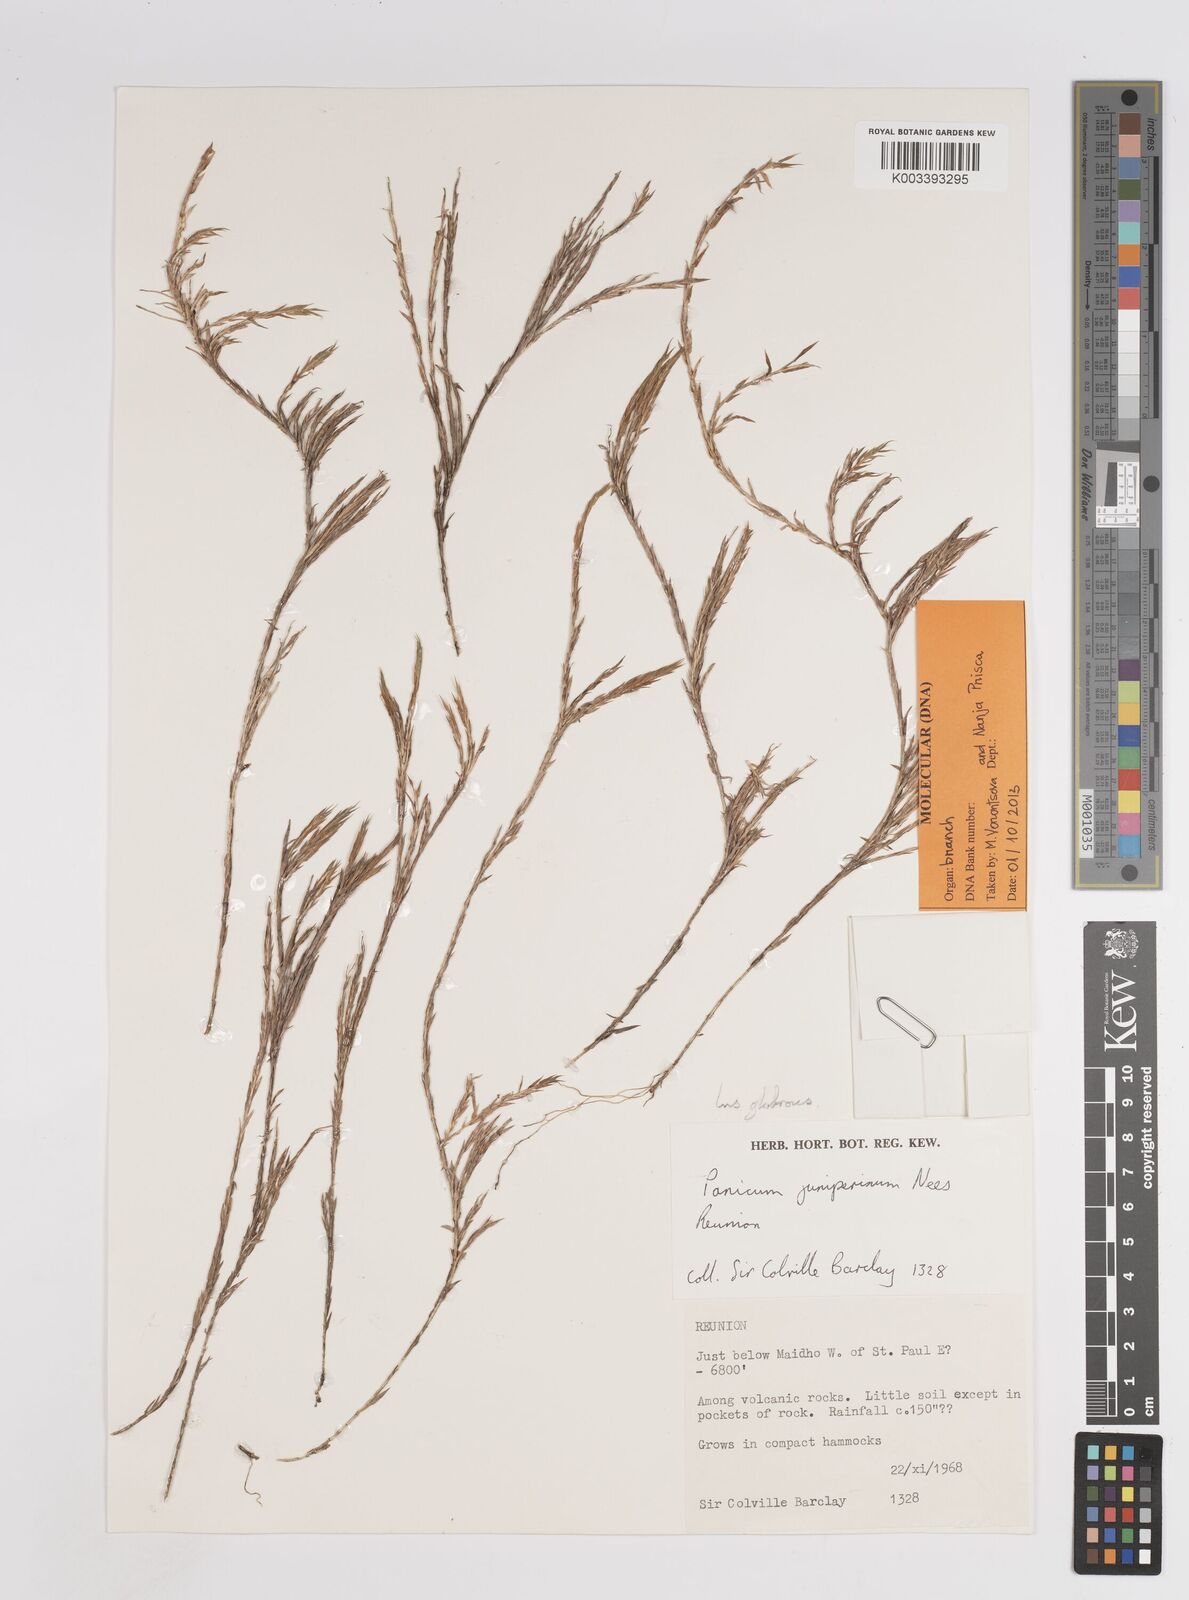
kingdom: Plantae
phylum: Tracheophyta
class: Liliopsida
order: Poales
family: Poaceae
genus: Panicum
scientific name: Panicum lycopodioides
